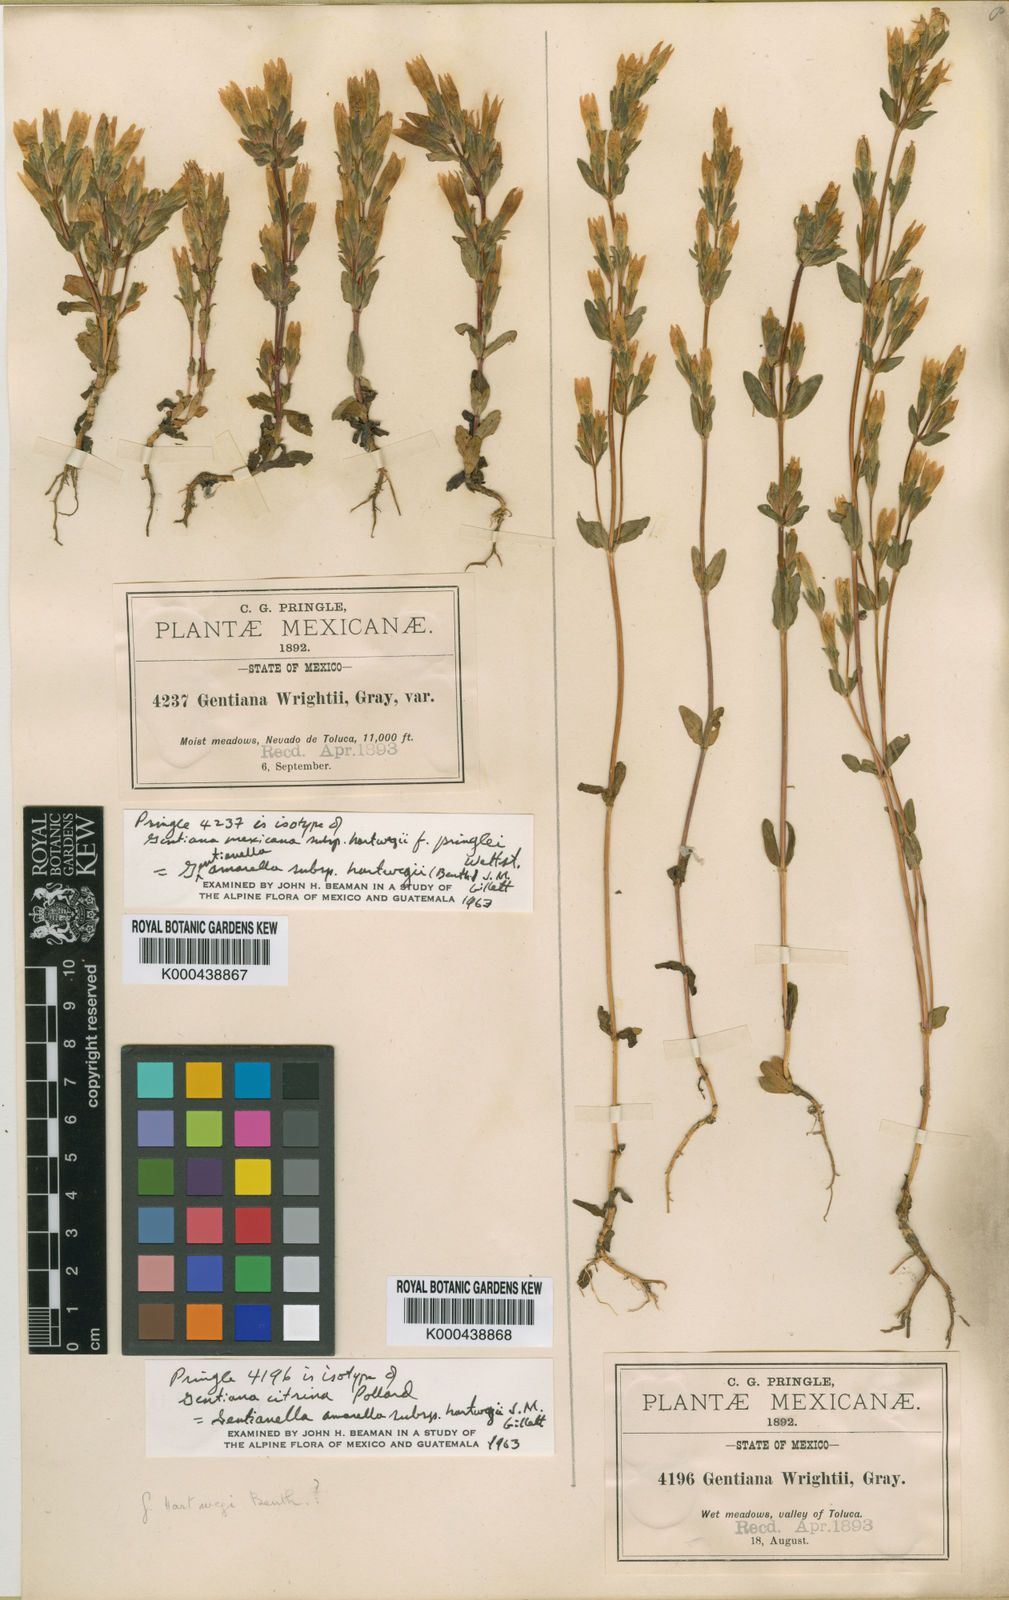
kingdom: Plantae
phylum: Tracheophyta
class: Magnoliopsida
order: Gentianales
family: Gentianaceae
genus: Gentianella
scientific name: Gentianella amarella
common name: Autumn gentian
